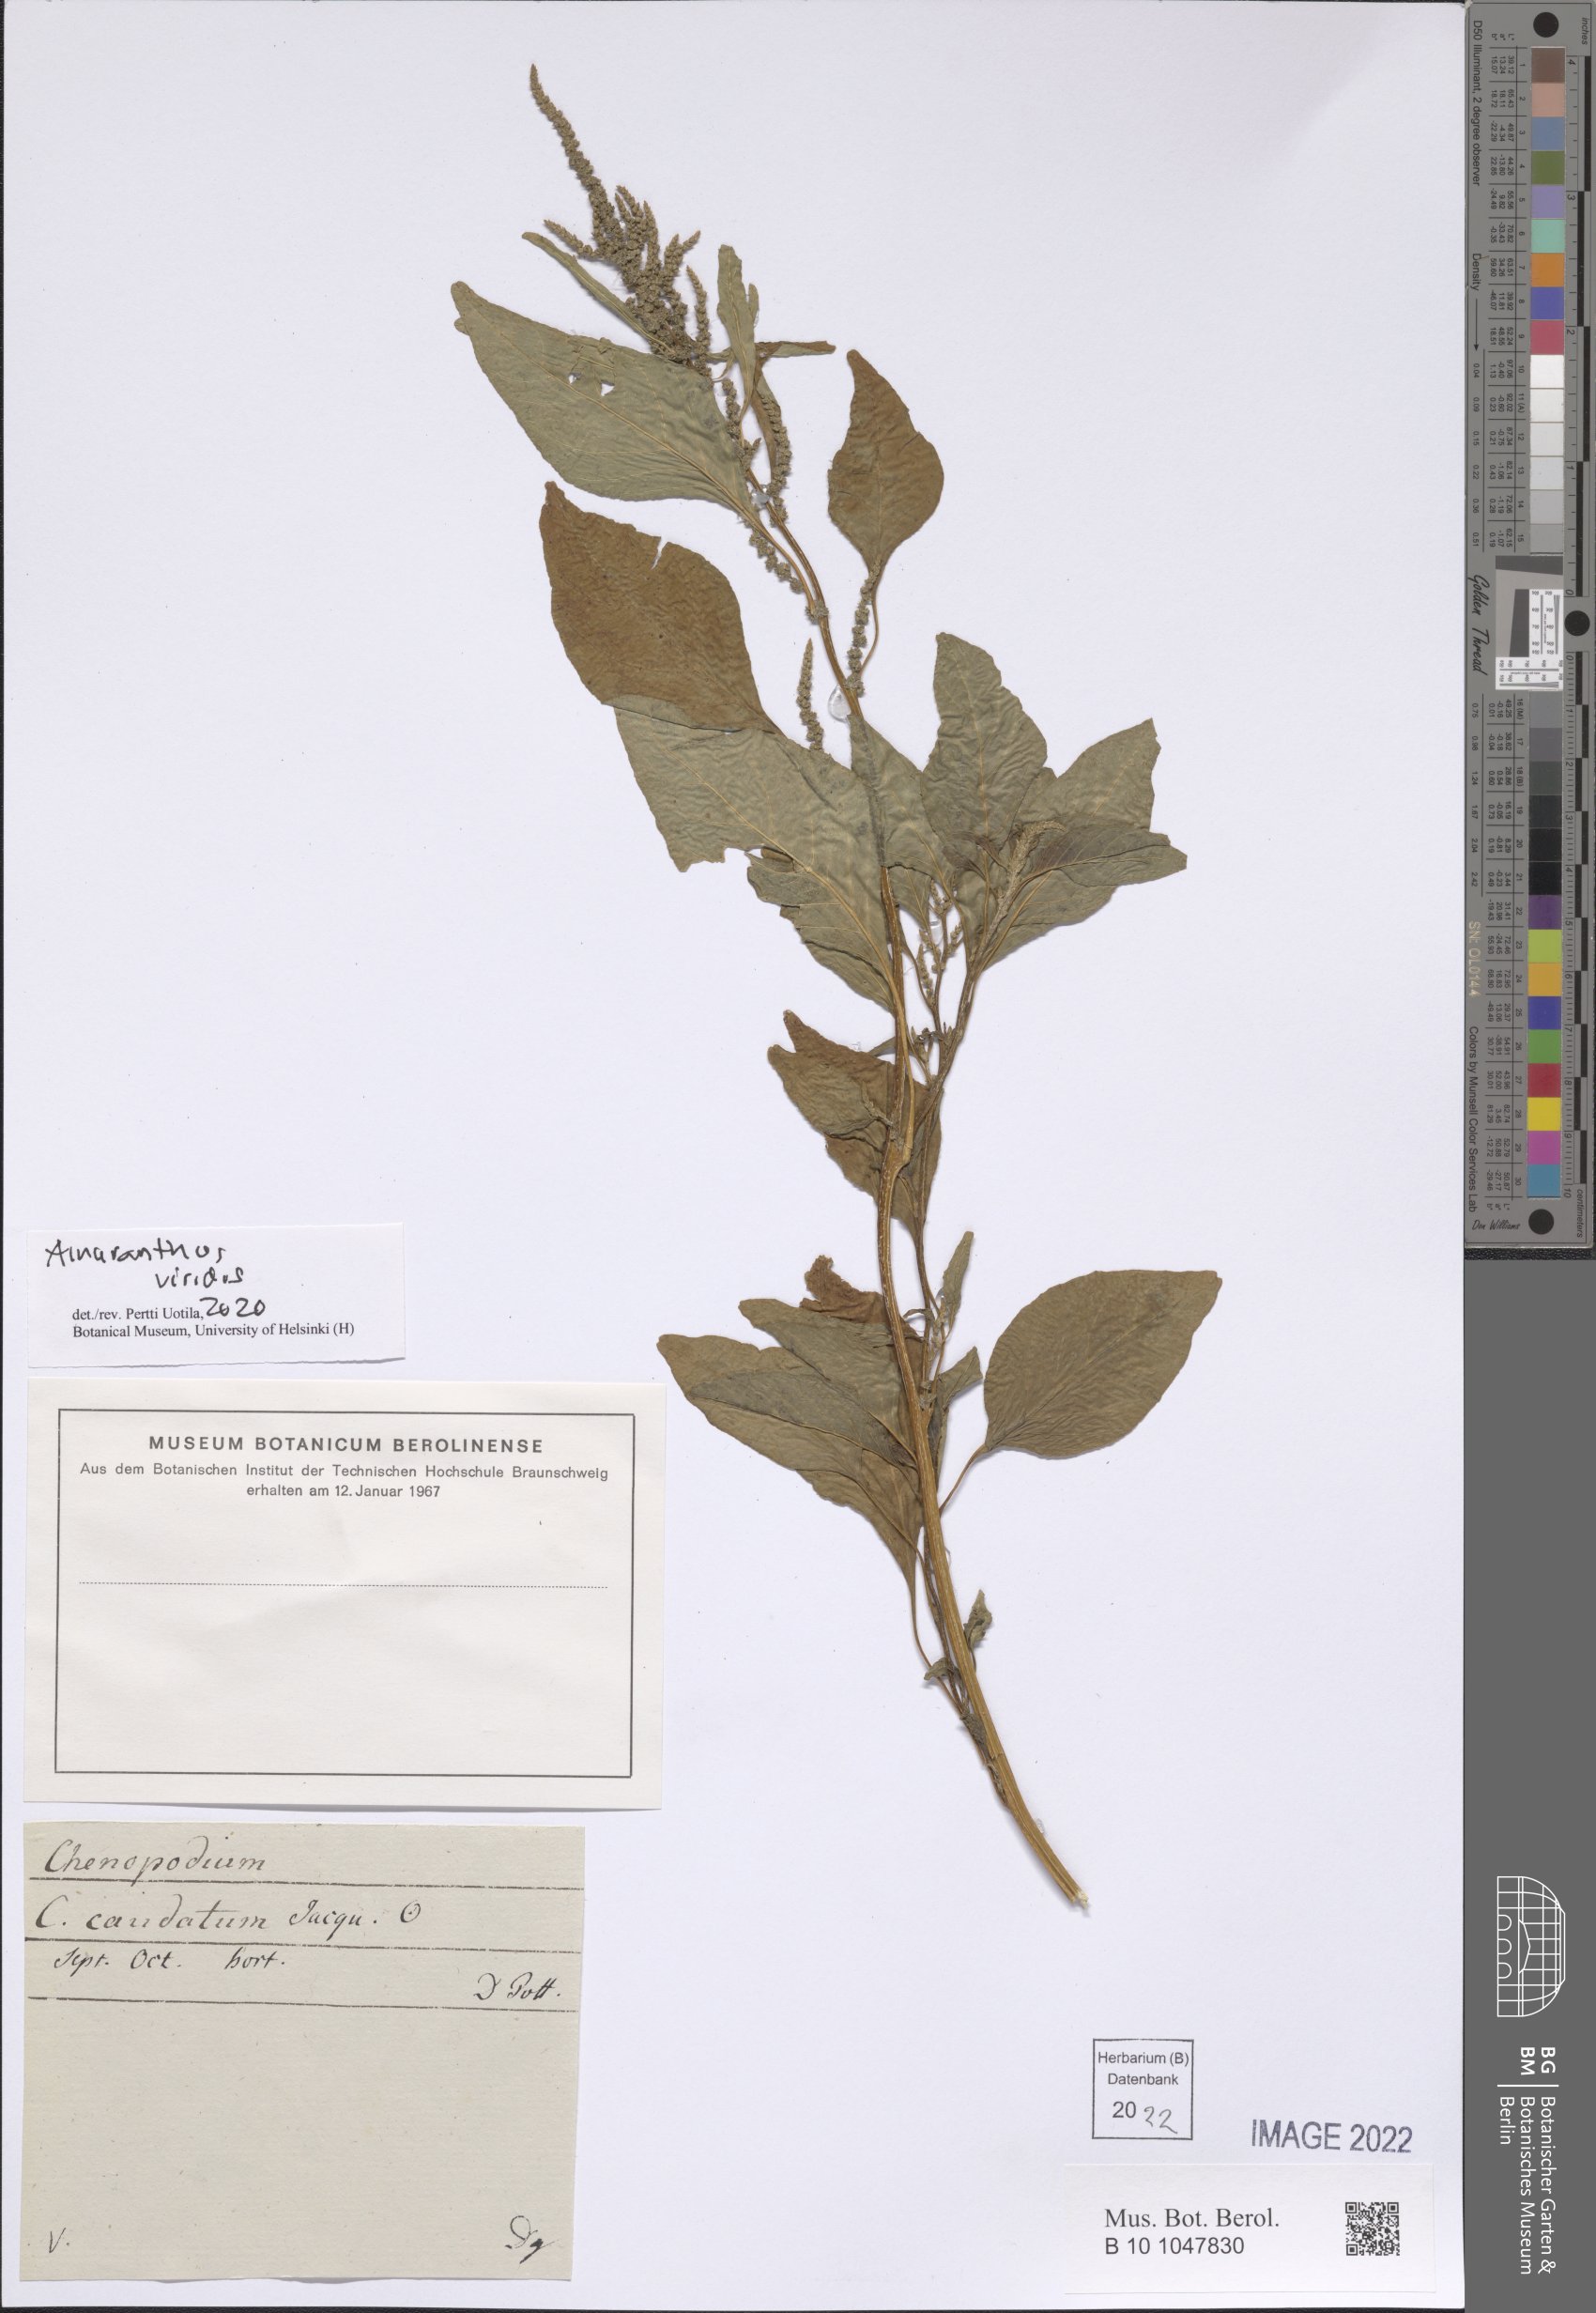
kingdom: Plantae
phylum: Tracheophyta
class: Magnoliopsida
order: Caryophyllales
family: Amaranthaceae
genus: Amaranthus
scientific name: Amaranthus viridis
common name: Slender amaranth
